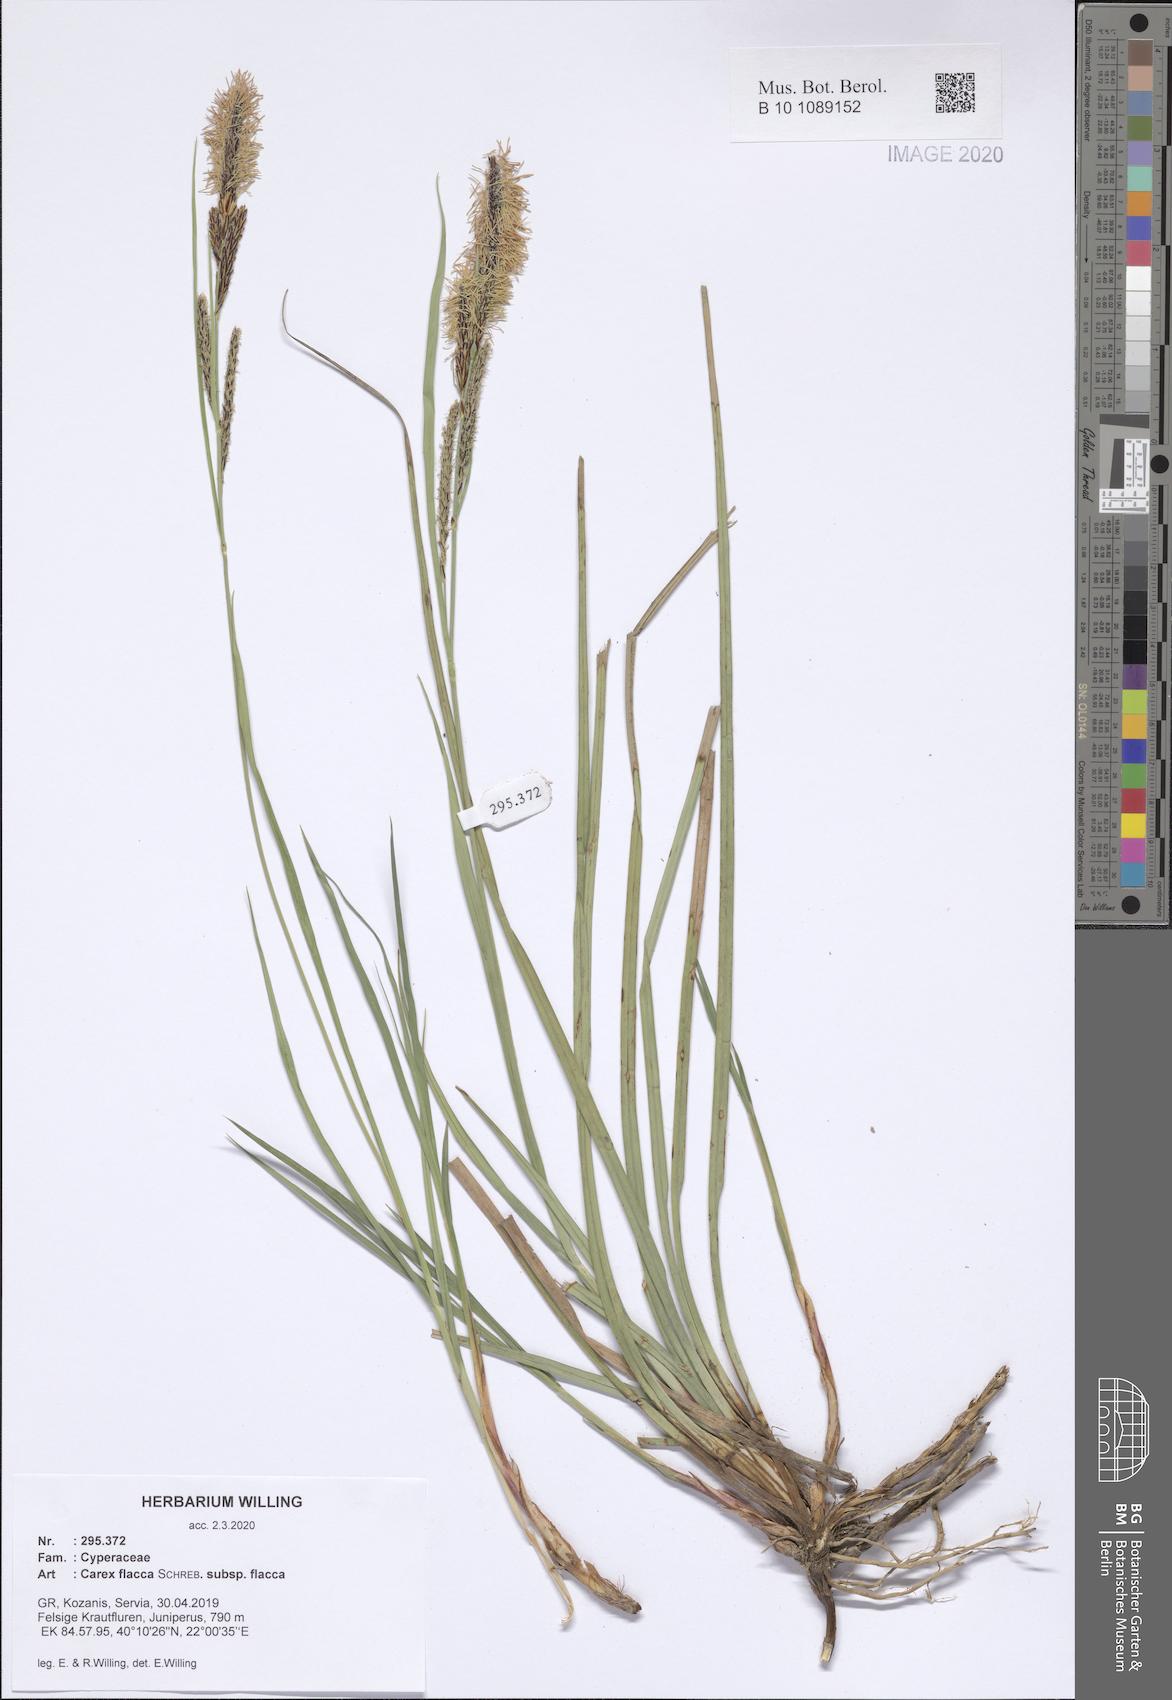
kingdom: Plantae
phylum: Tracheophyta
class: Liliopsida
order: Poales
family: Cyperaceae
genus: Carex
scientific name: Carex flacca
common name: Glaucous sedge
